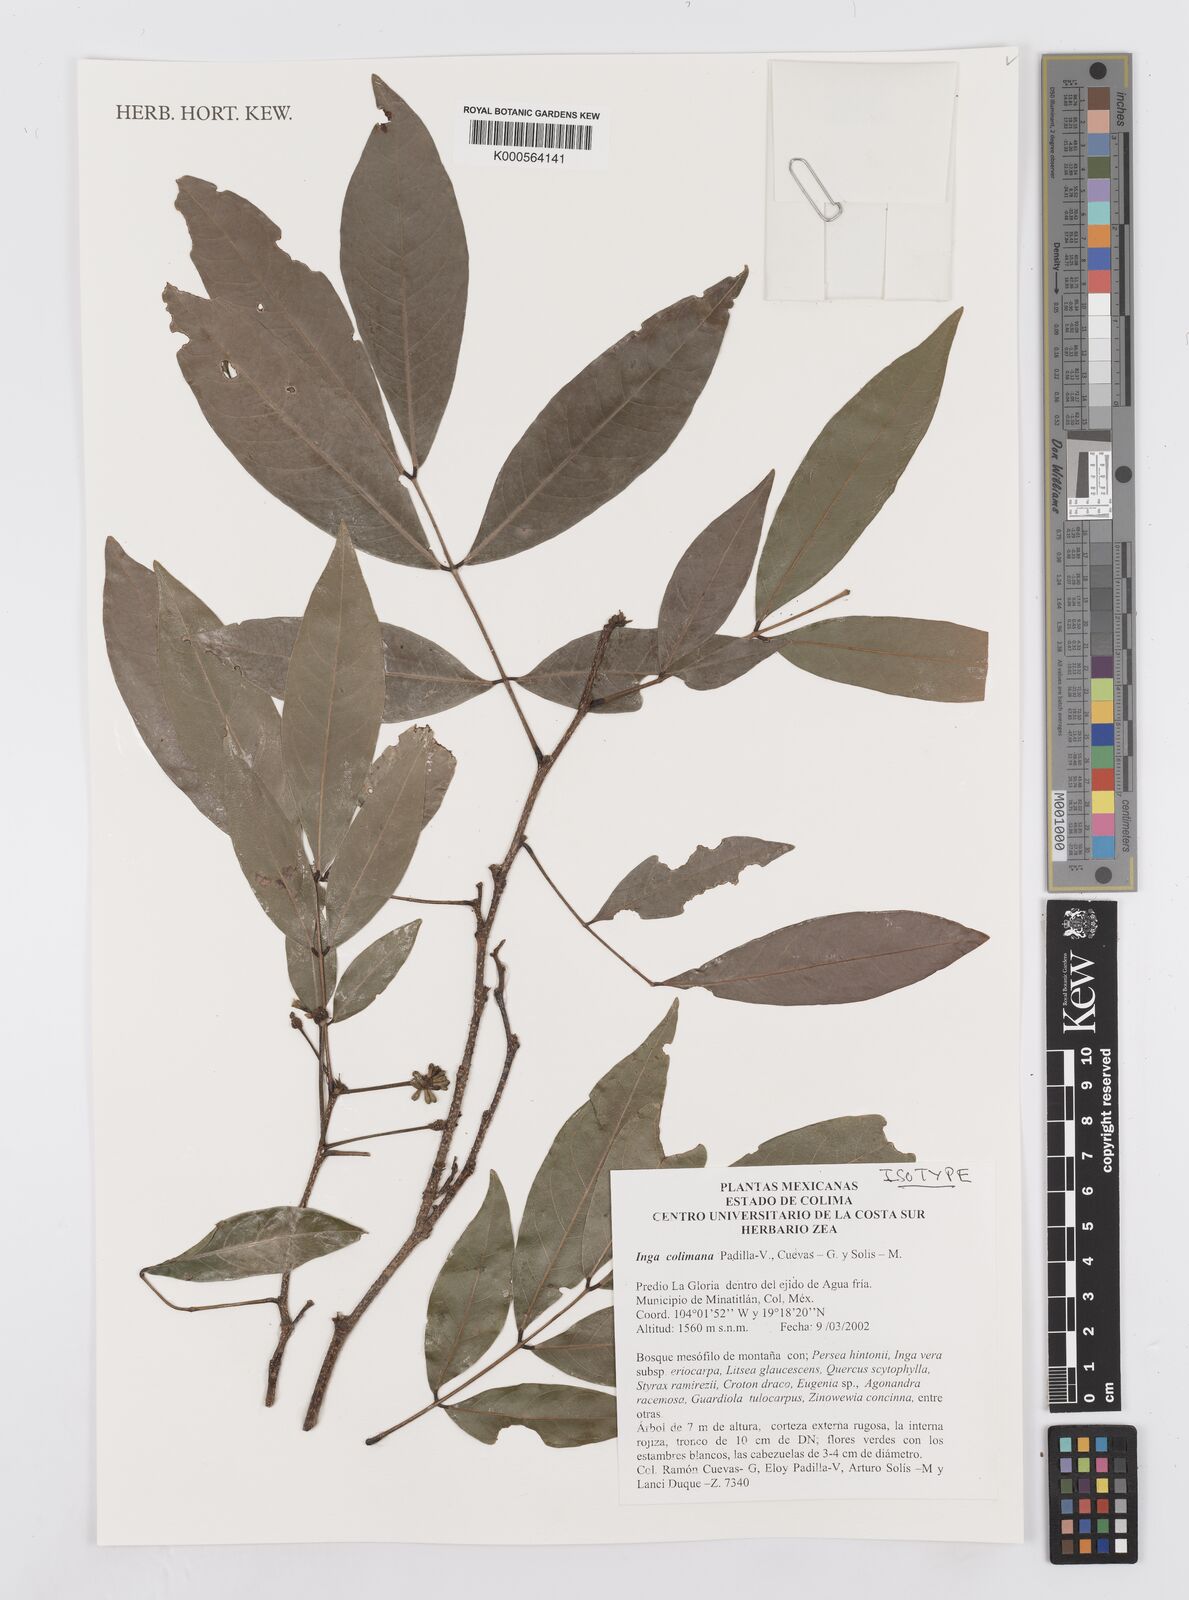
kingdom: Plantae
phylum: Tracheophyta
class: Magnoliopsida
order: Fabales
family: Fabaceae
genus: Inga
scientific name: Inga
